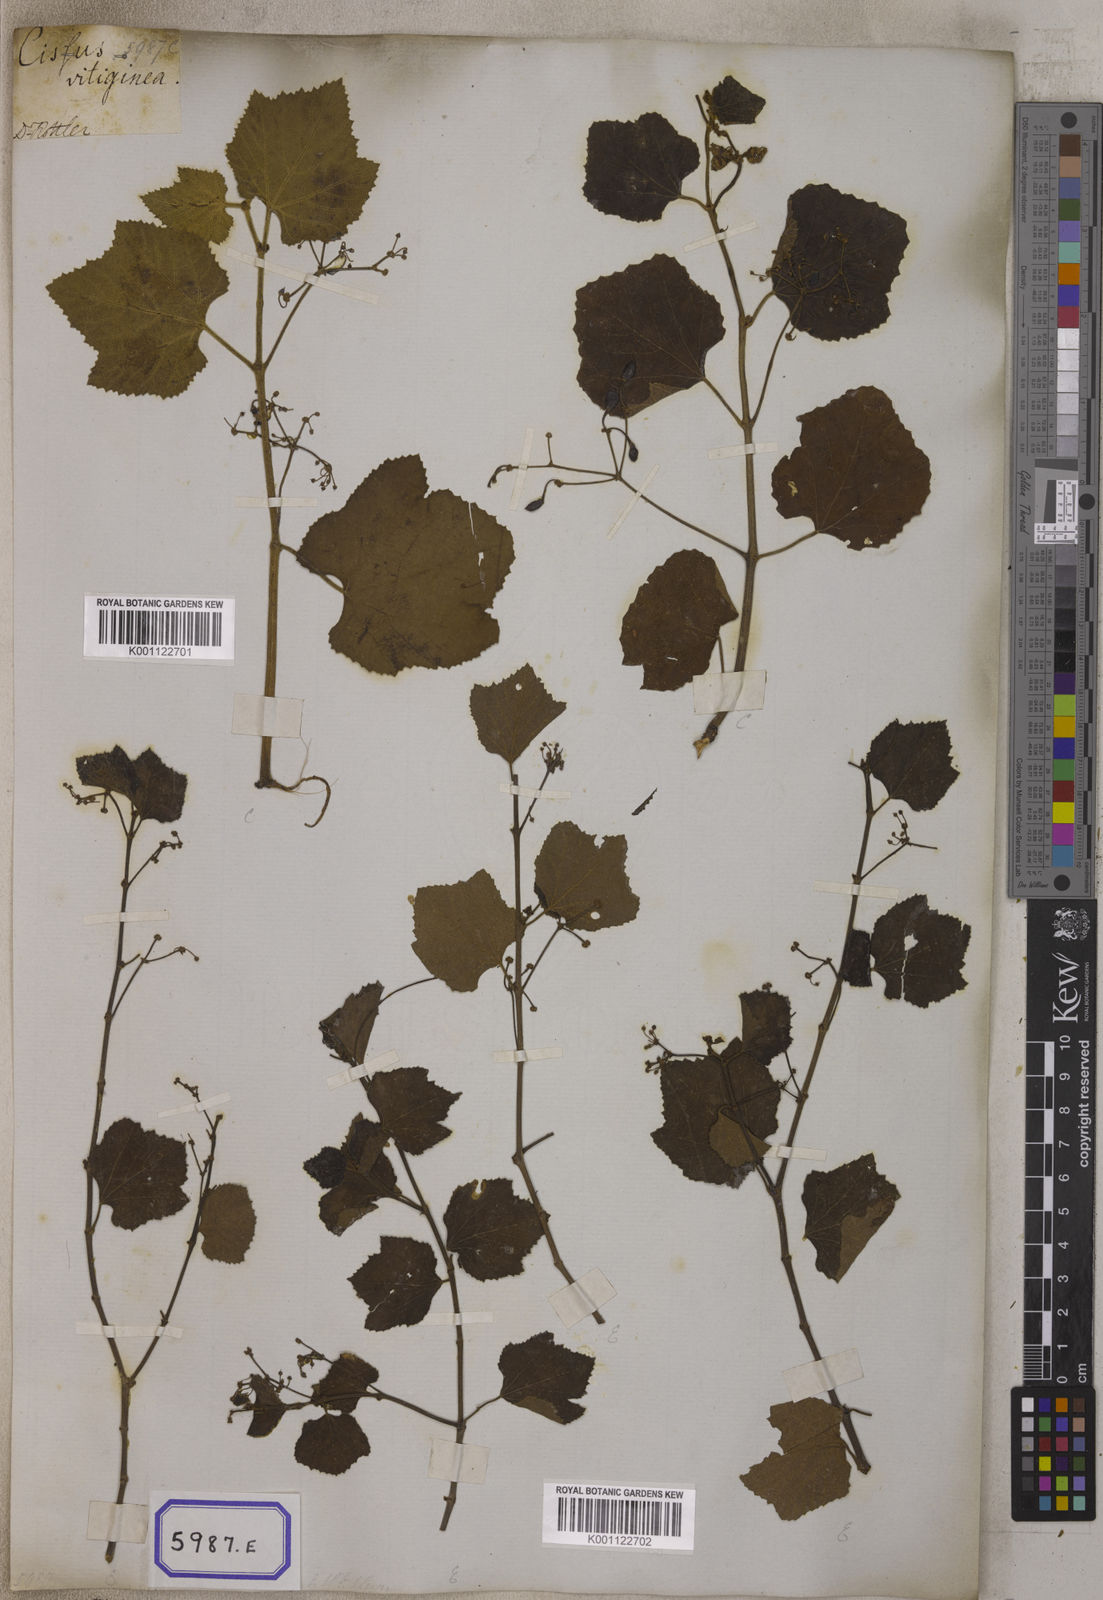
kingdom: Plantae
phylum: Tracheophyta
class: Magnoliopsida
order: Vitales
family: Vitaceae
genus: Vitis
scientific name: Vitis
